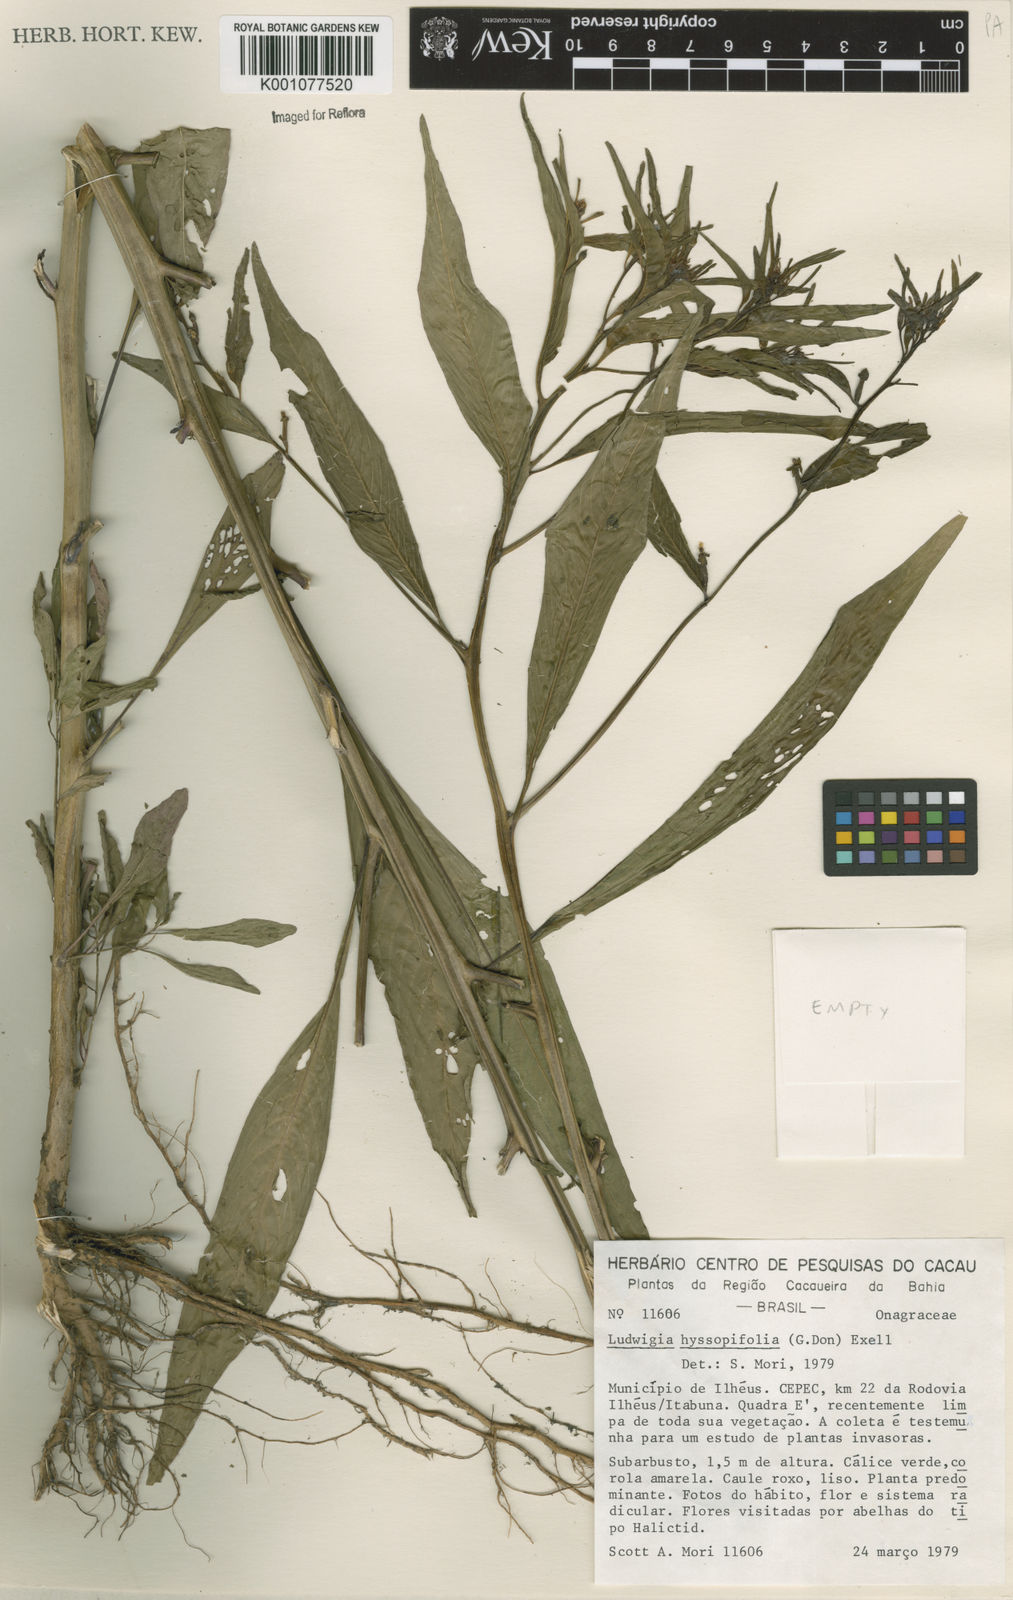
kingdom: Plantae
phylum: Tracheophyta
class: Magnoliopsida
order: Myrtales
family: Onagraceae
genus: Ludwigia
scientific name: Ludwigia hyssopifolia
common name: Linear leaf water primrose
